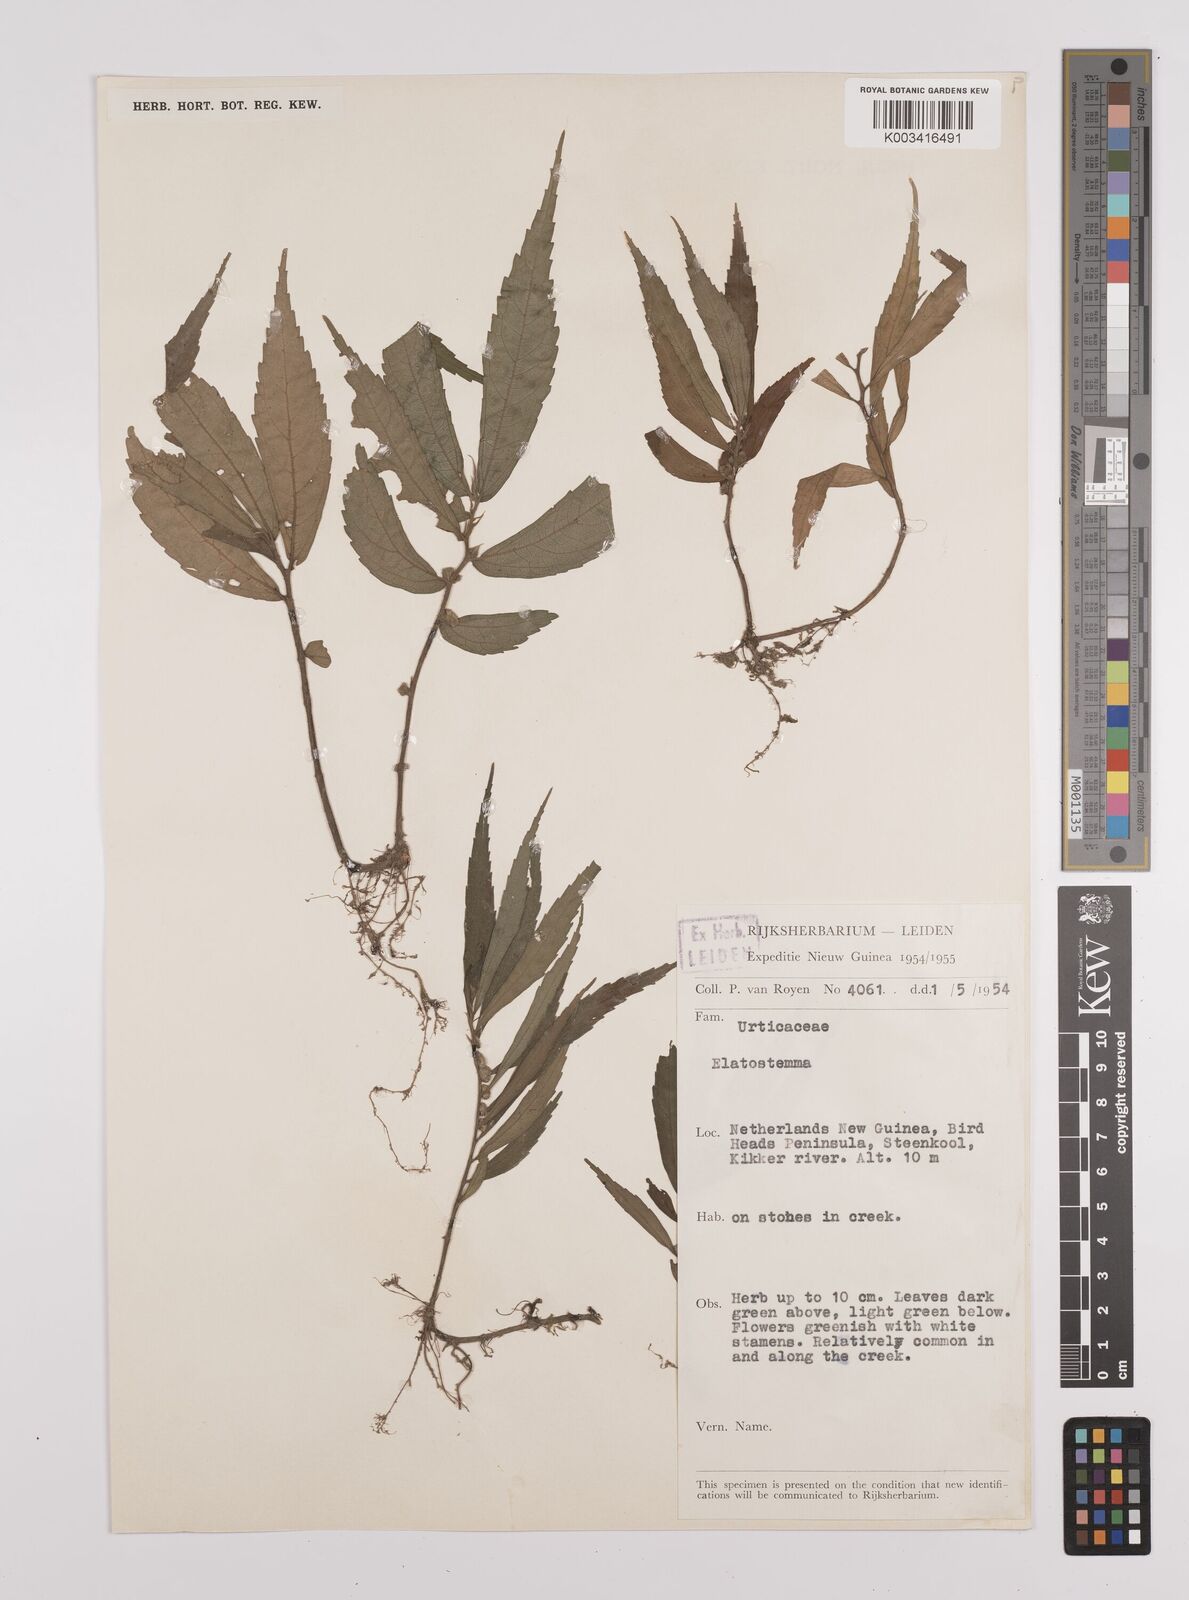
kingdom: Plantae
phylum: Tracheophyta
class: Magnoliopsida
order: Rosales
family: Urticaceae
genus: Elatostema
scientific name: Elatostema
